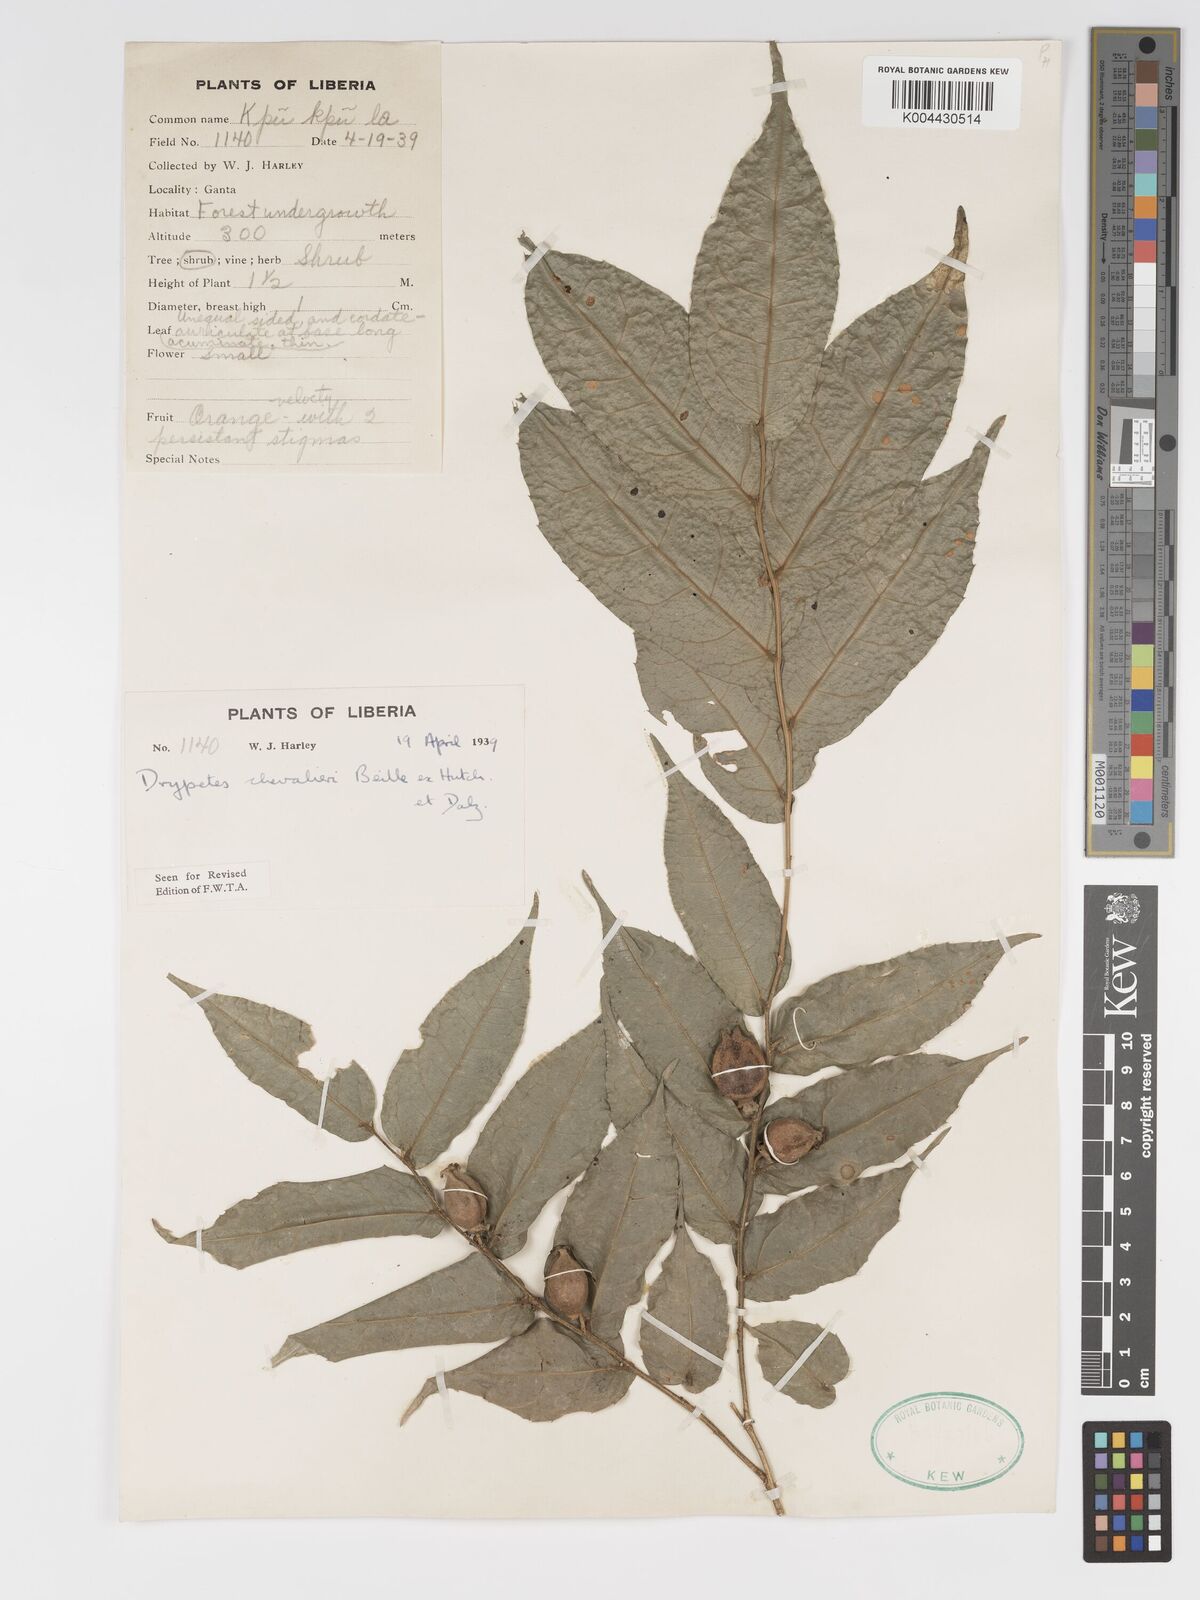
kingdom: Plantae
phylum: Tracheophyta
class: Magnoliopsida
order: Malpighiales
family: Putranjivaceae
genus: Drypetes
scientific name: Drypetes chevalieri
